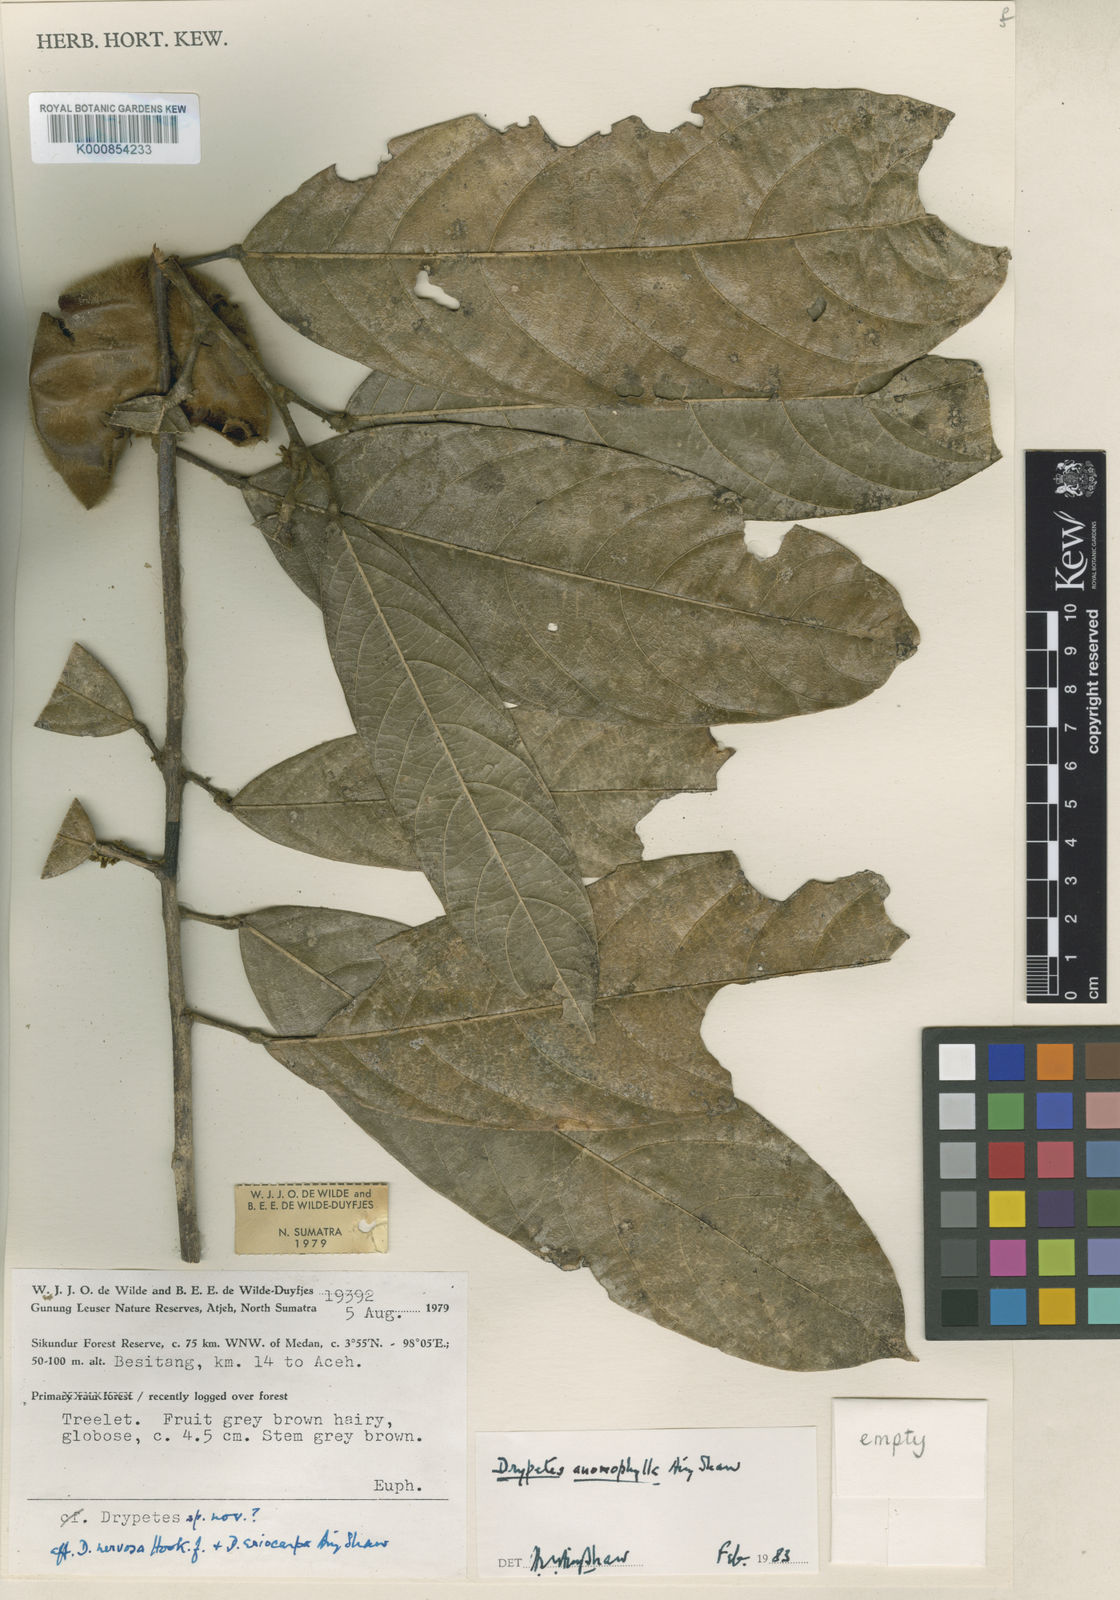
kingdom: Plantae
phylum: Tracheophyta
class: Magnoliopsida
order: Malpighiales
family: Putranjivaceae
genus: Drypetes
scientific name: Drypetes
